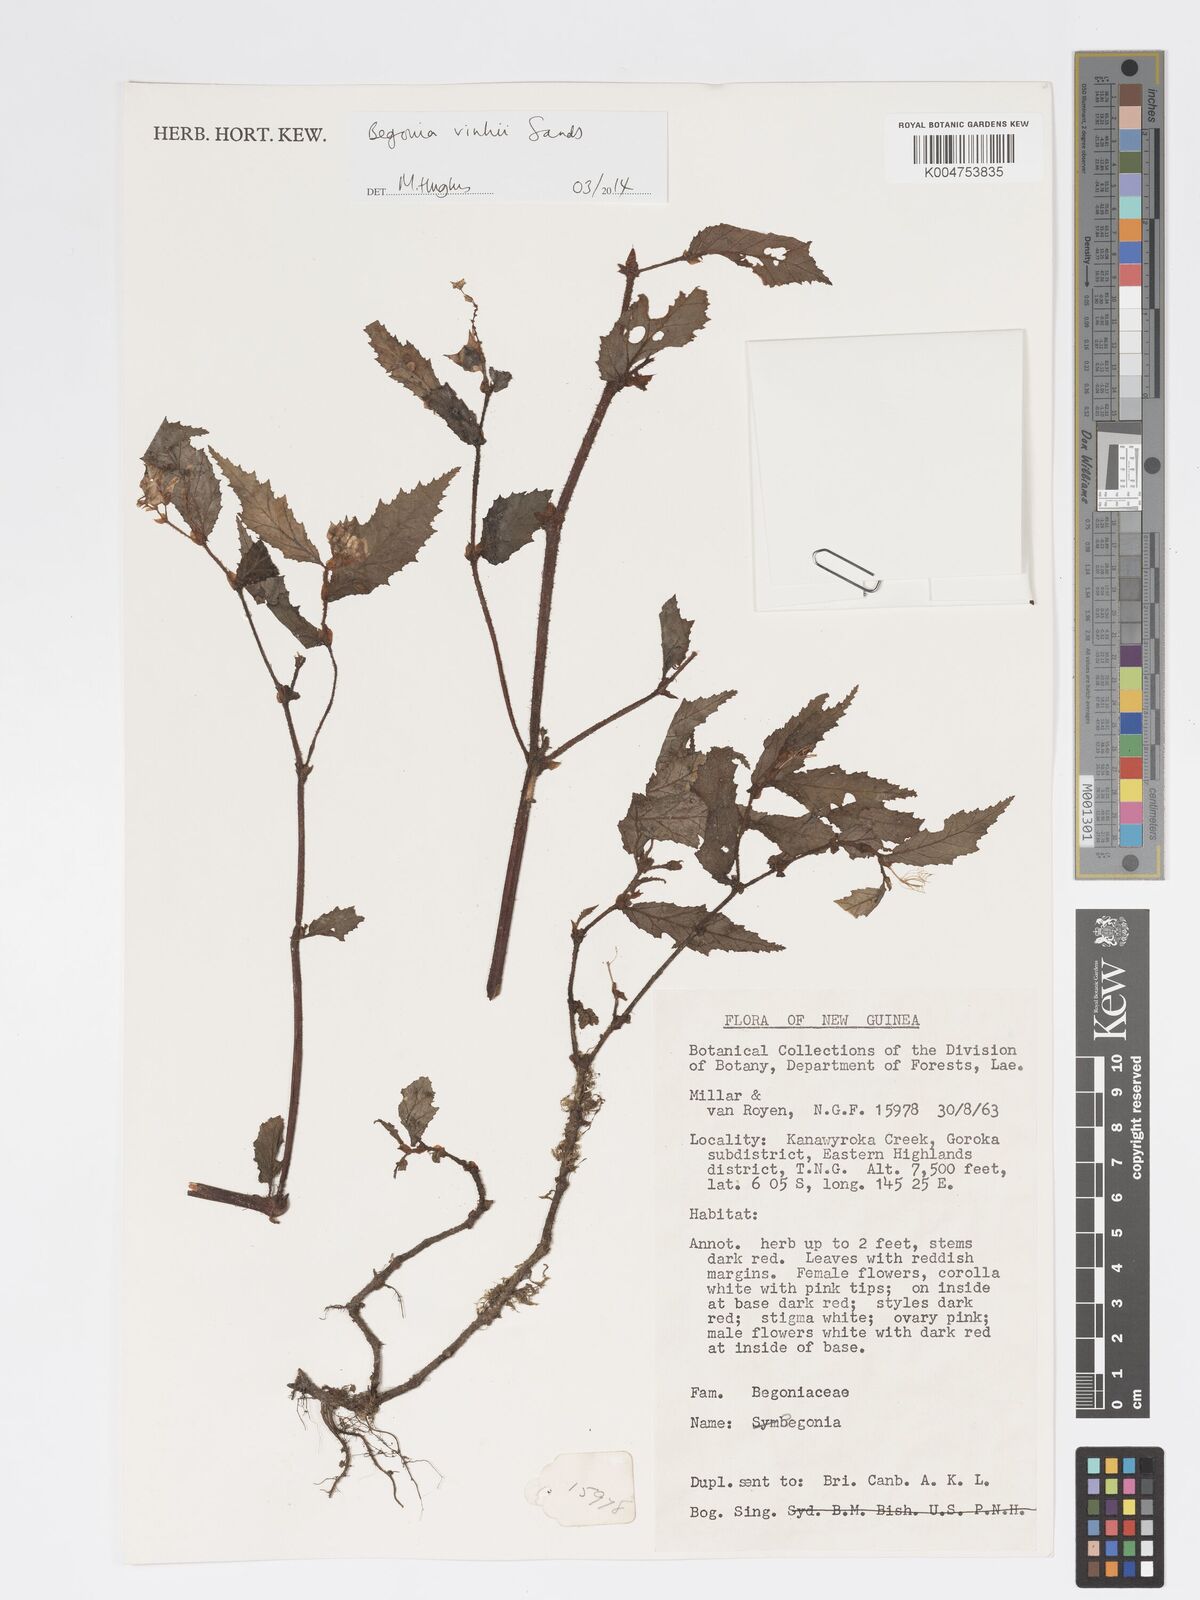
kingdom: Plantae
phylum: Tracheophyta
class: Magnoliopsida
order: Cucurbitales
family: Begoniaceae
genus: Begonia
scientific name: Begonia vinkii
